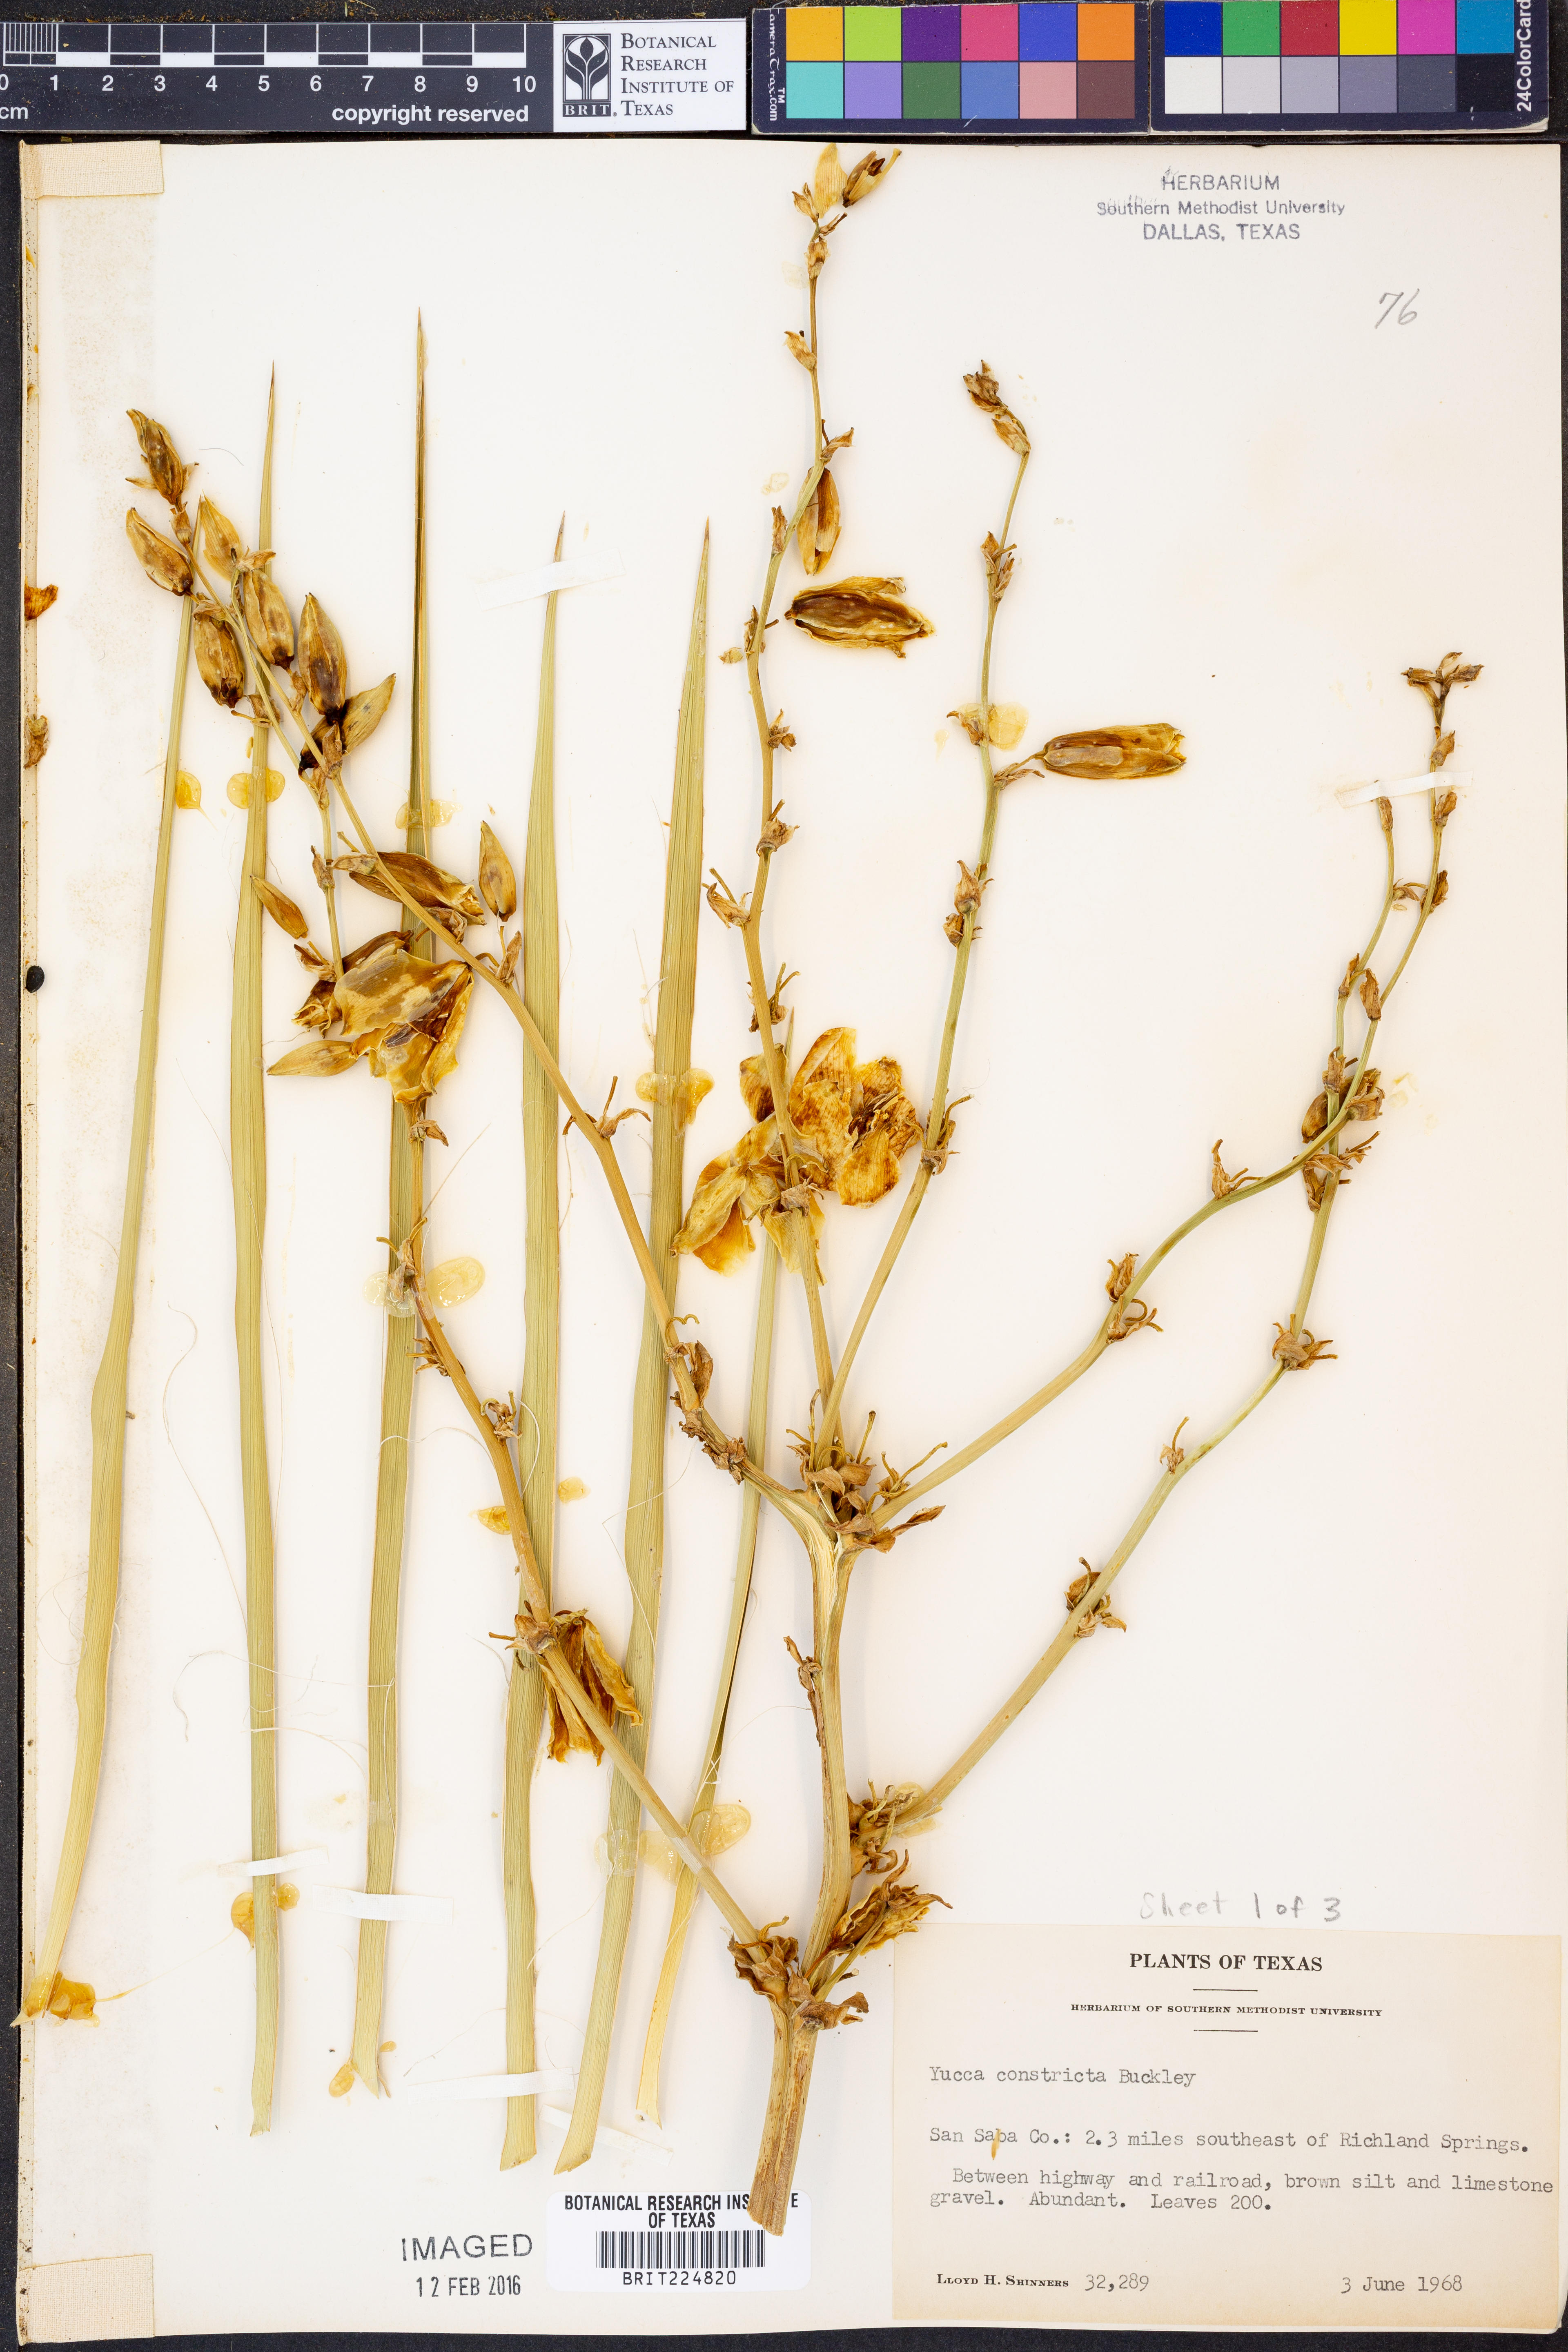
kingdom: Plantae
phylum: Tracheophyta
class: Liliopsida
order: Asparagales
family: Asparagaceae
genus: Yucca
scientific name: Yucca constricta
